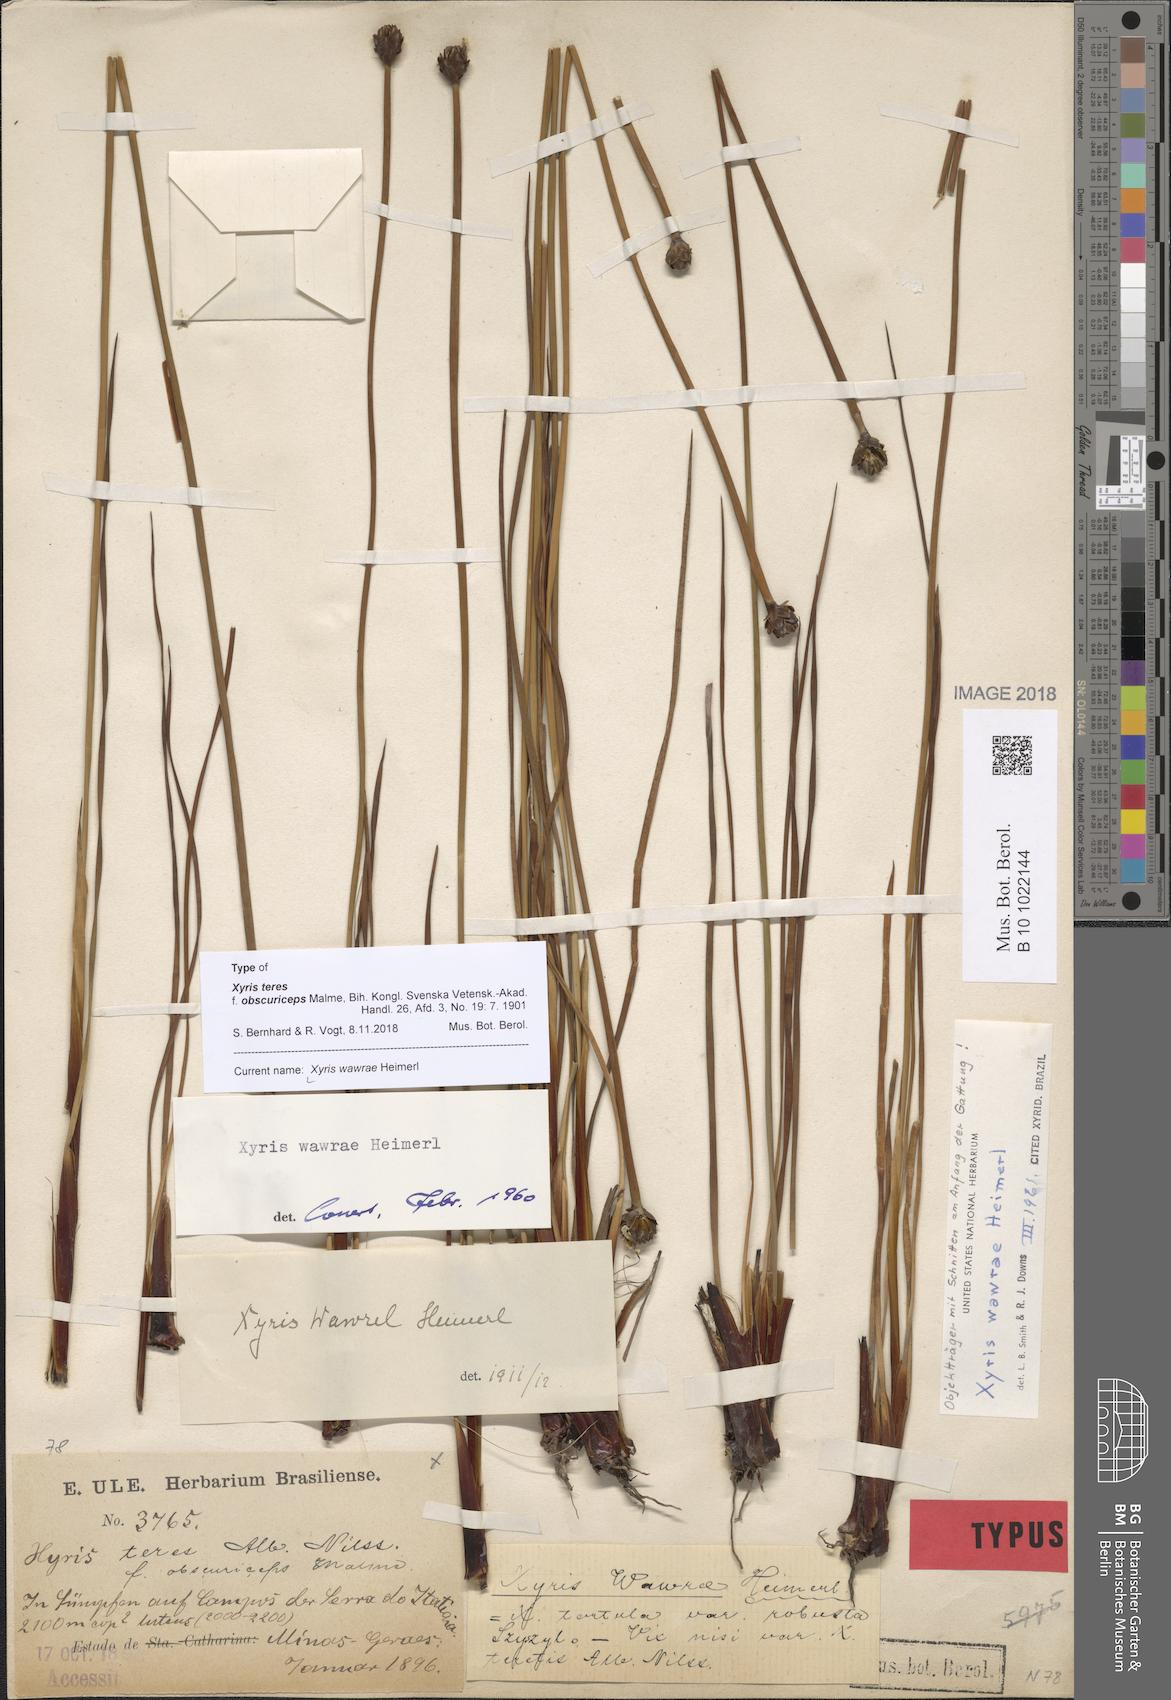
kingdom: Plantae
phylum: Tracheophyta
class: Liliopsida
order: Poales
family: Xyridaceae
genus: Xyris
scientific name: Xyris wawrae
